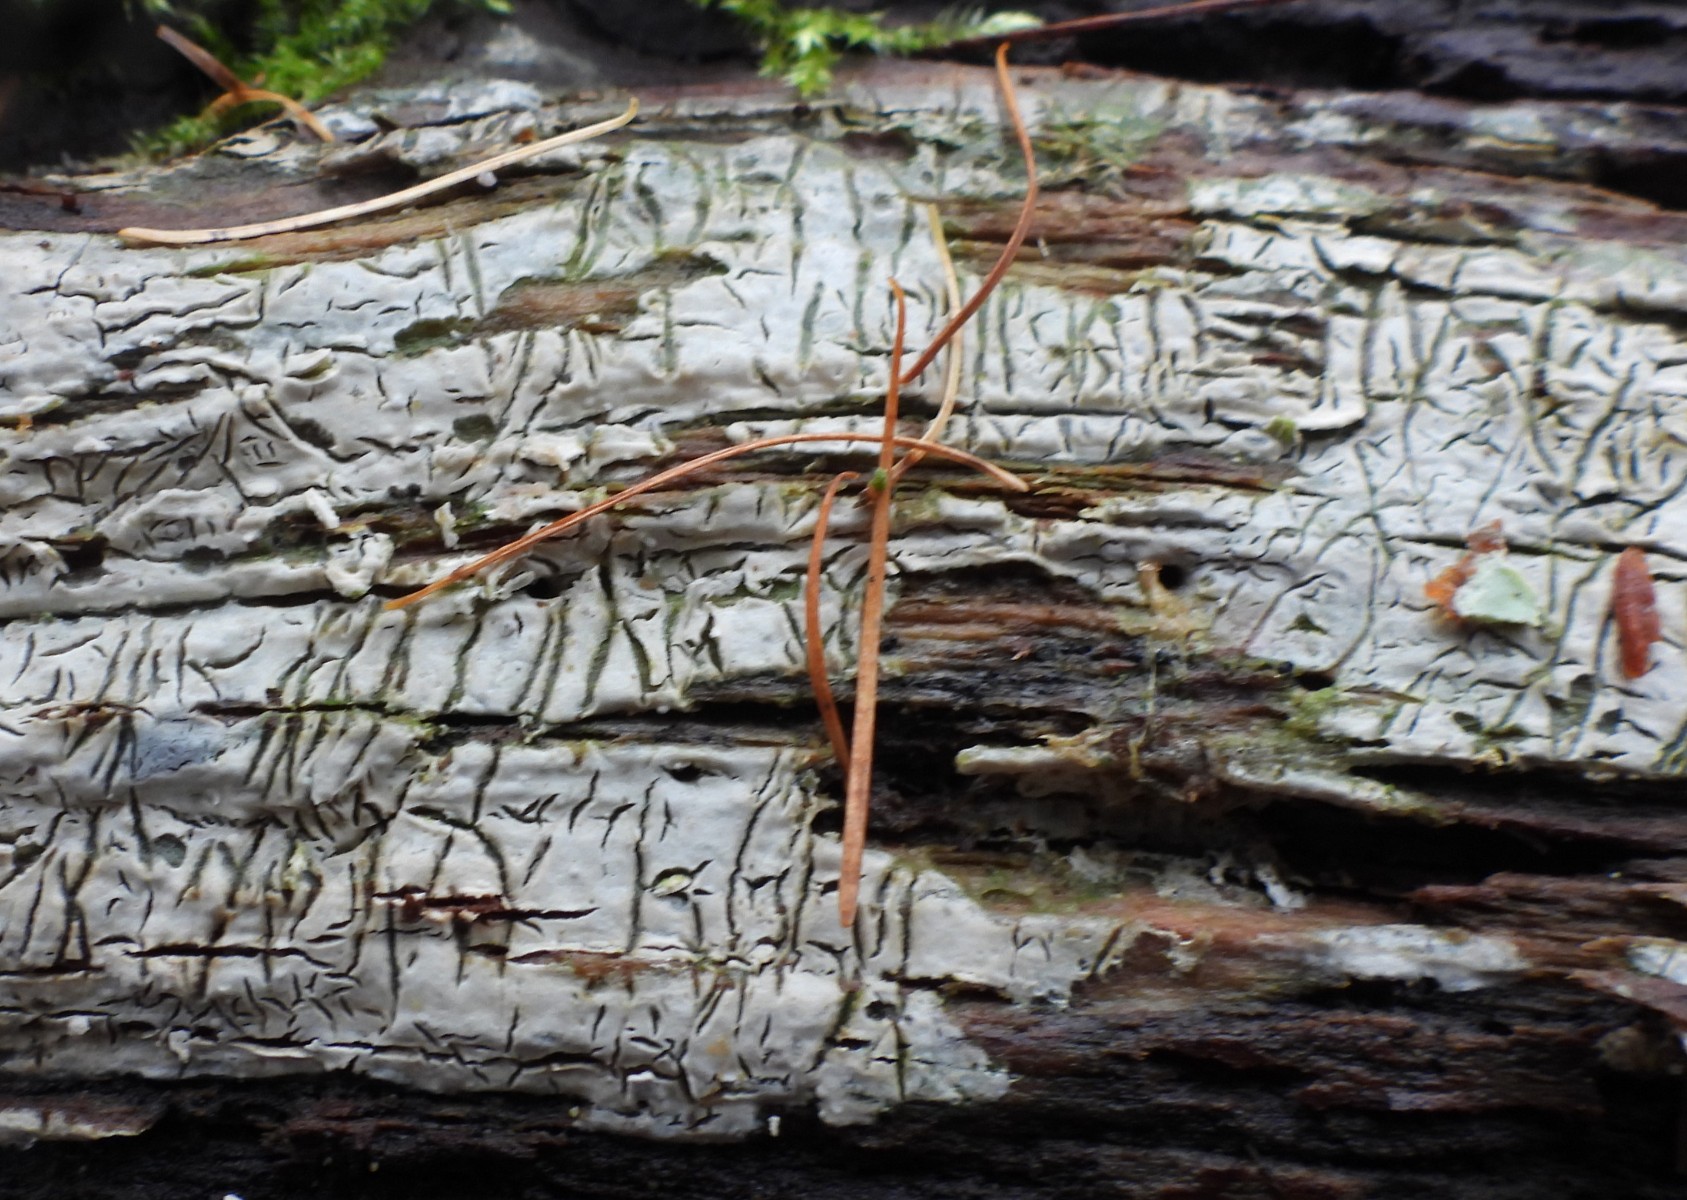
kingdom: Fungi
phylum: Basidiomycota
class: Agaricomycetes
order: Agaricales
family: Physalacriaceae
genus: Cylindrobasidium
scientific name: Cylindrobasidium evolvens
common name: sprækkehinde
